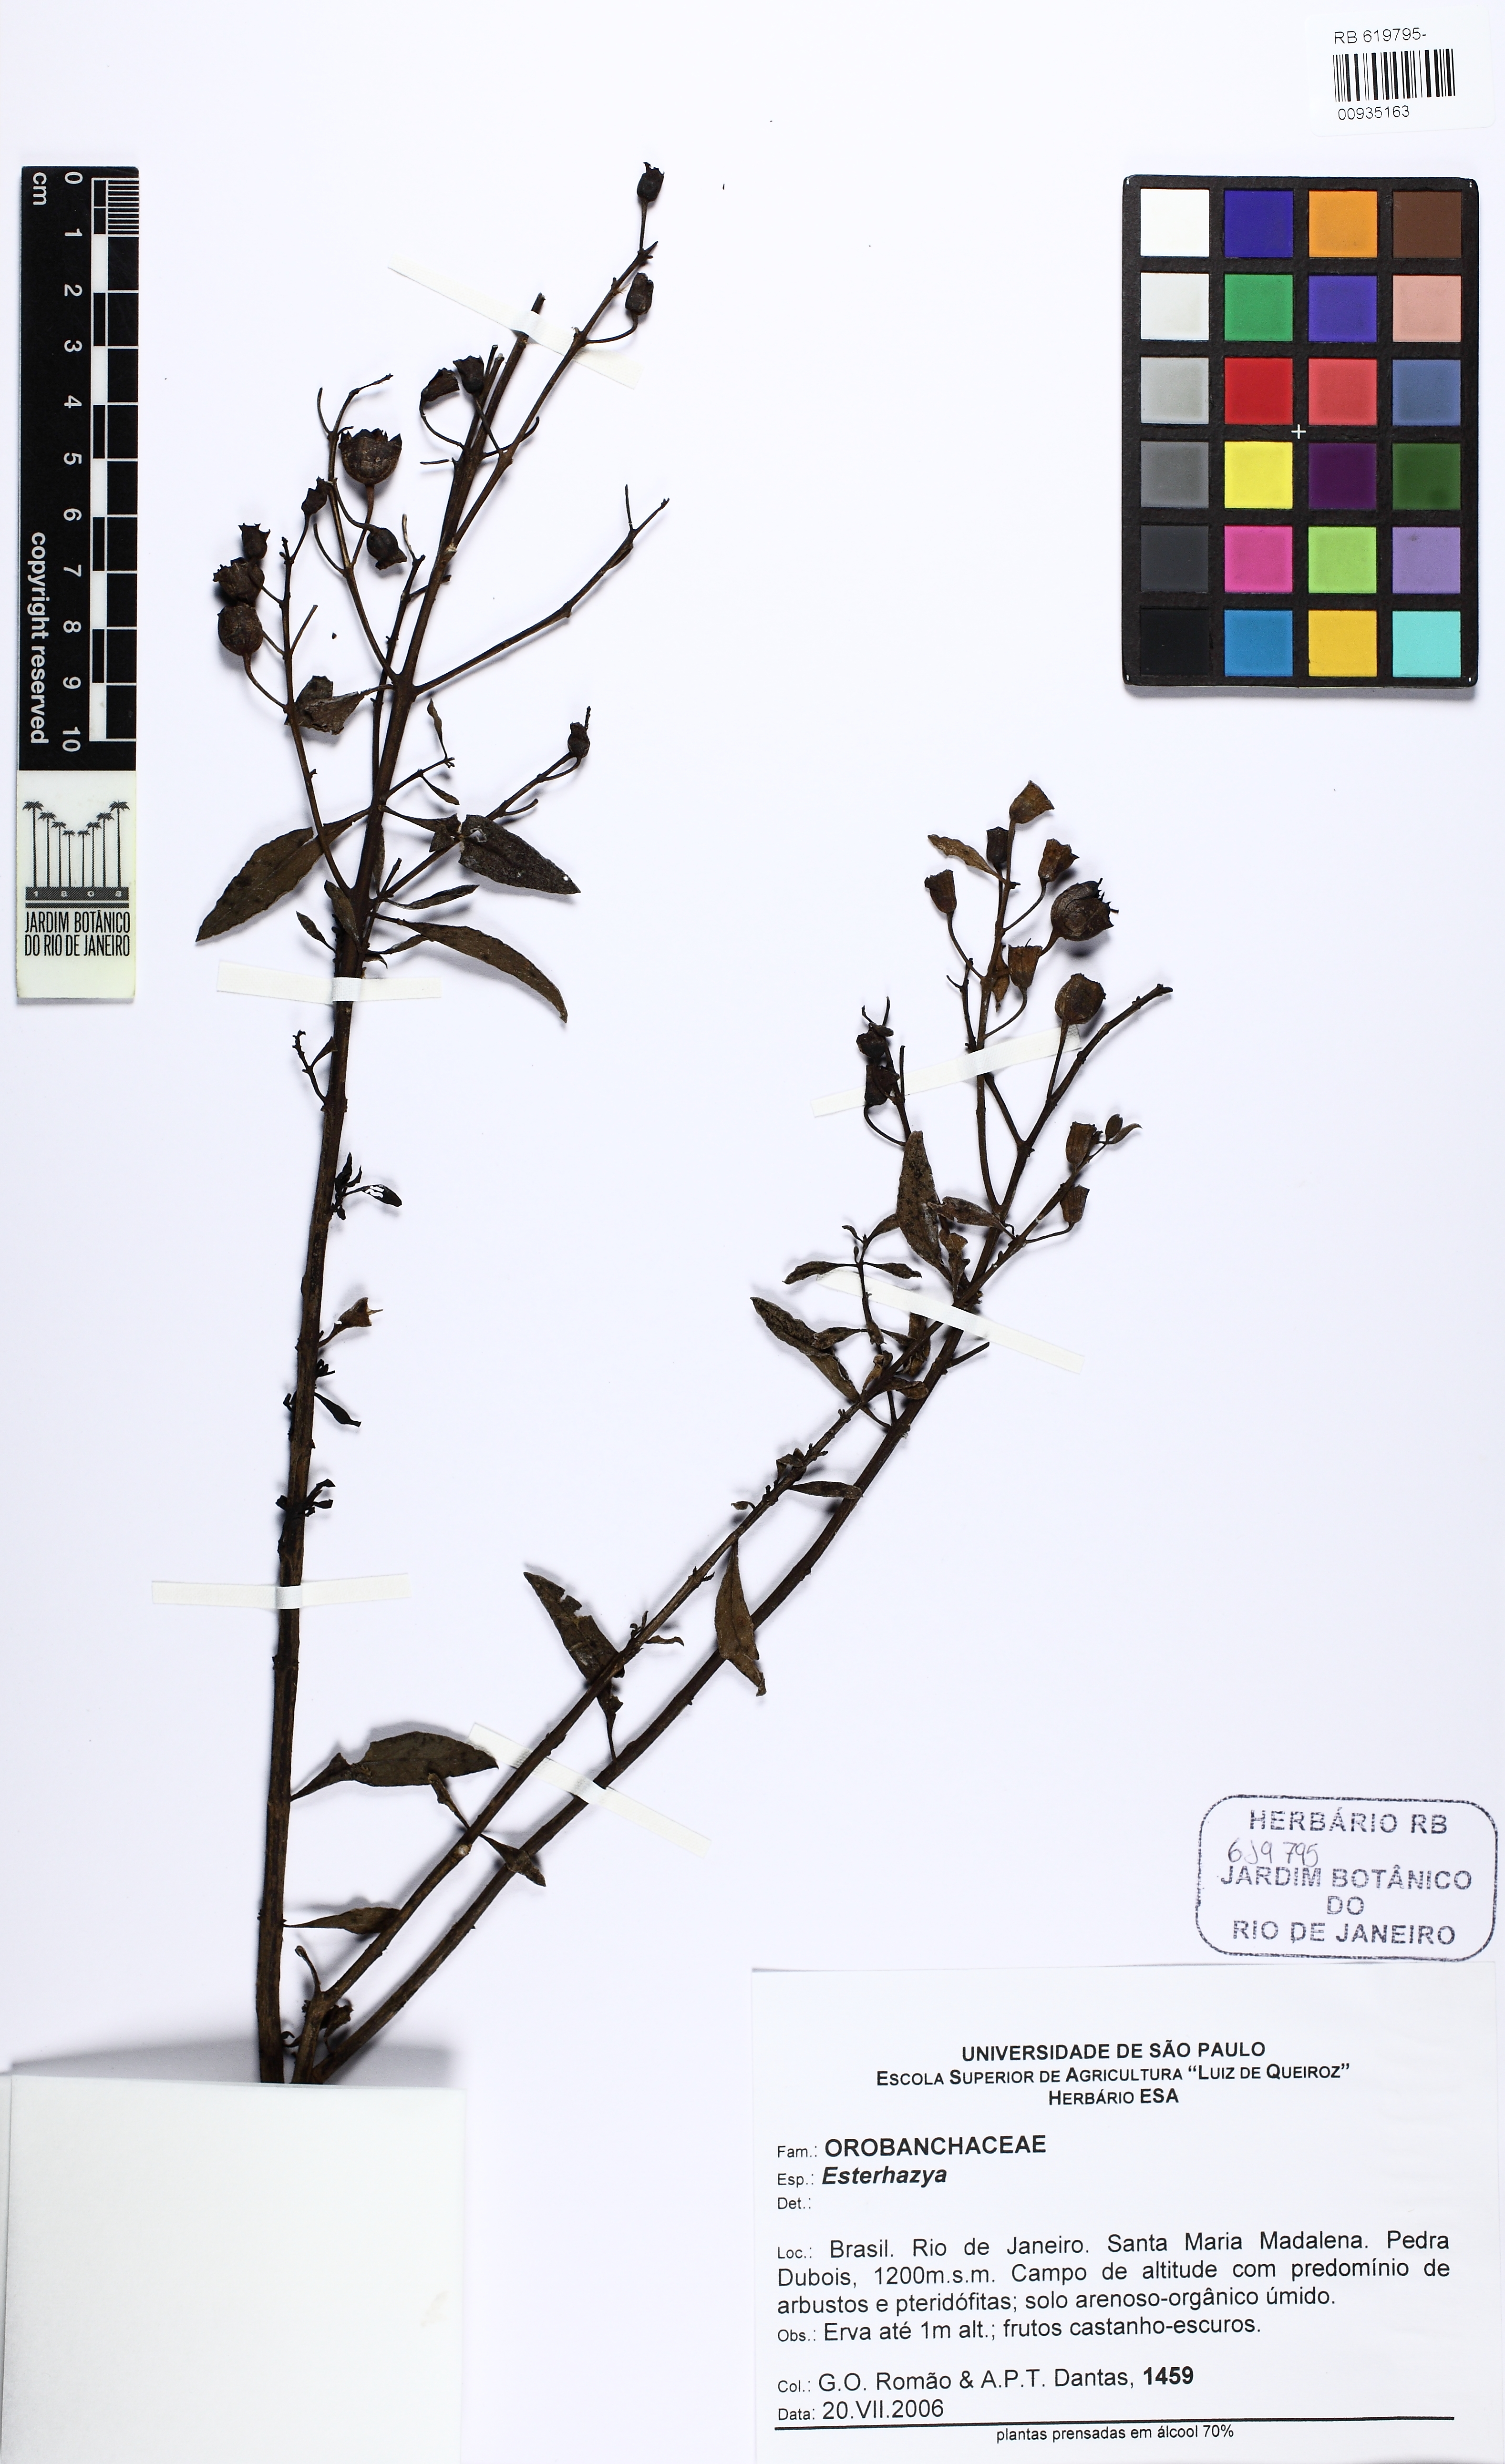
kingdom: Plantae
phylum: Tracheophyta
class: Magnoliopsida
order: Lamiales
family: Orobanchaceae
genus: Esterhazya
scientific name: Esterhazya
